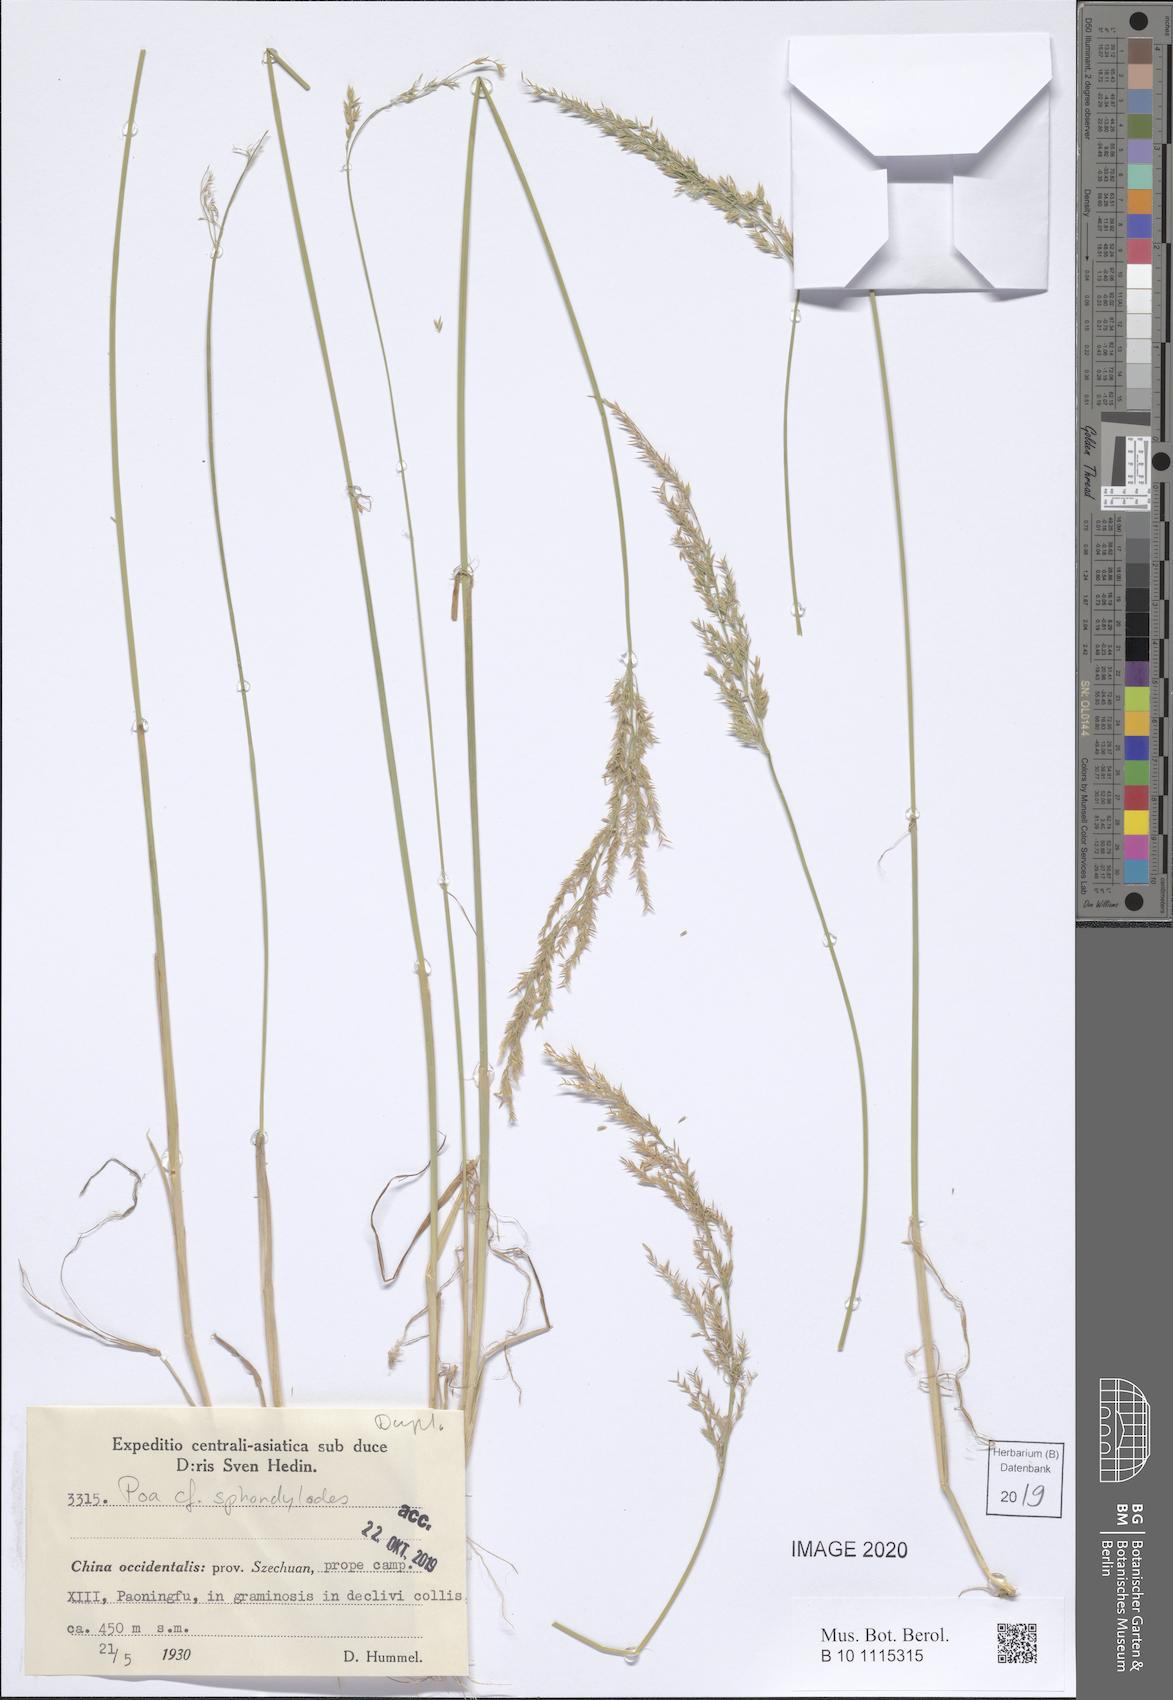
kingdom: Plantae
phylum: Tracheophyta
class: Liliopsida
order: Poales
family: Poaceae
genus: Poa
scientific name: Poa versicolor
